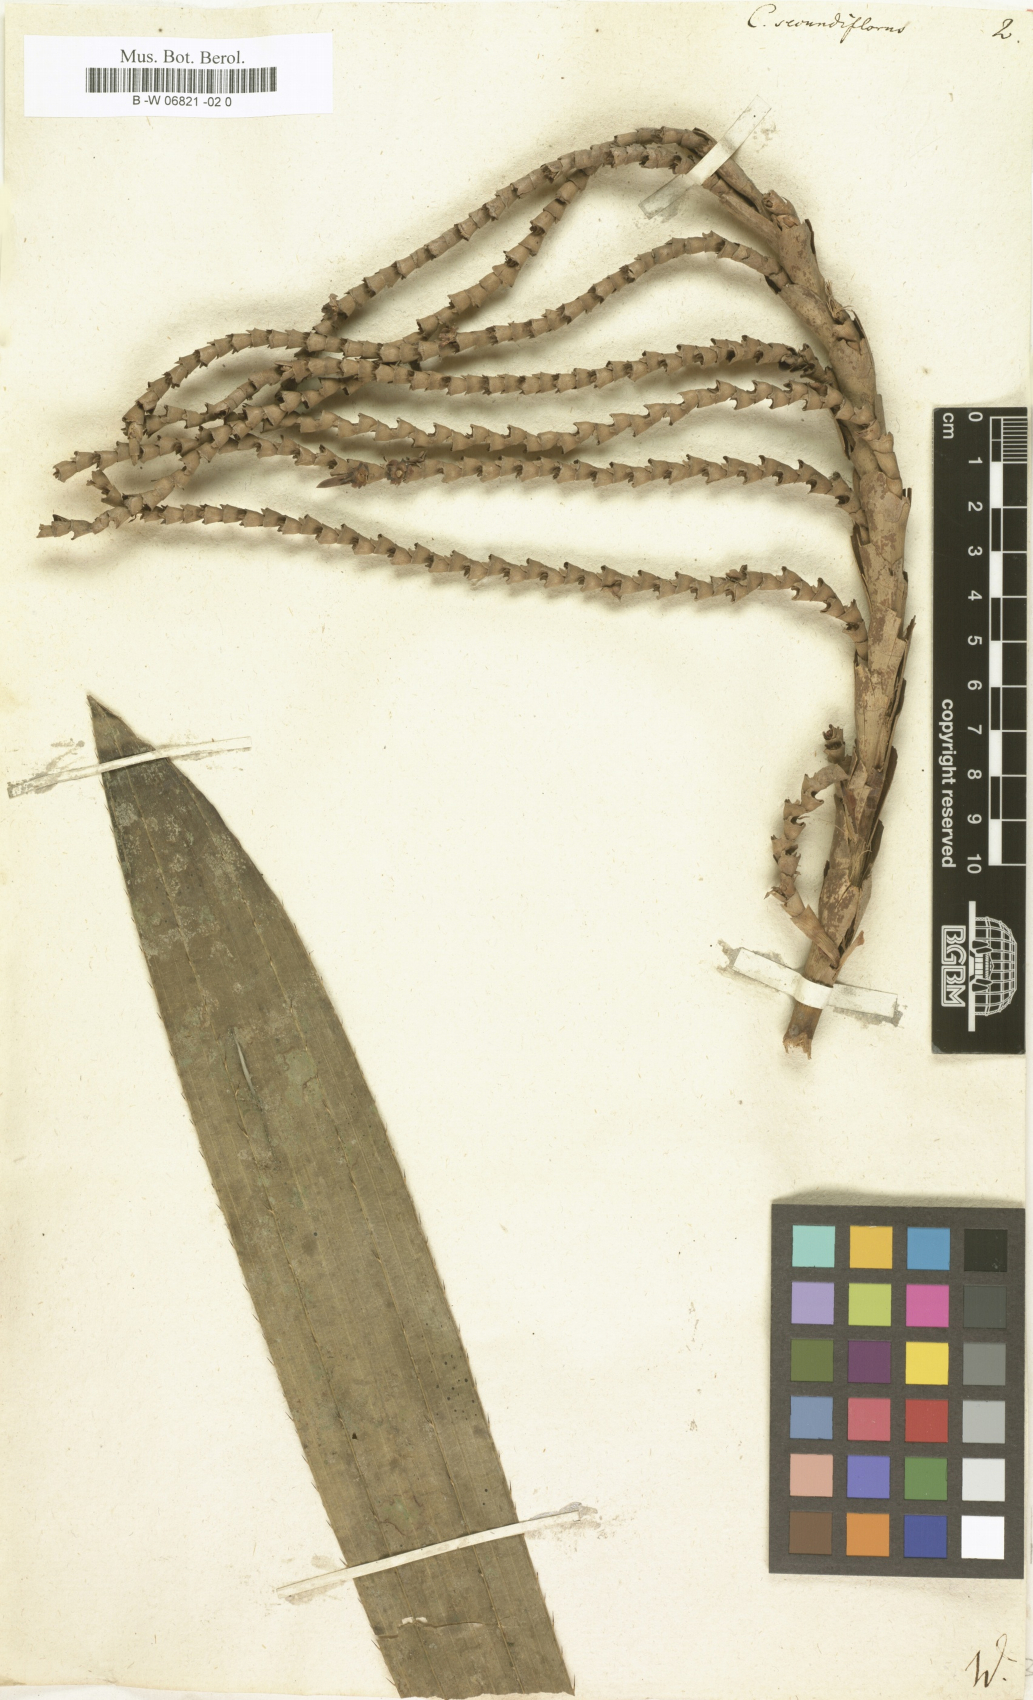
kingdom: Plantae
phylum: Tracheophyta
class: Liliopsida
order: Arecales
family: Arecaceae
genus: Laccosperma
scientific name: Laccosperma secundiflorum
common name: Rattan
